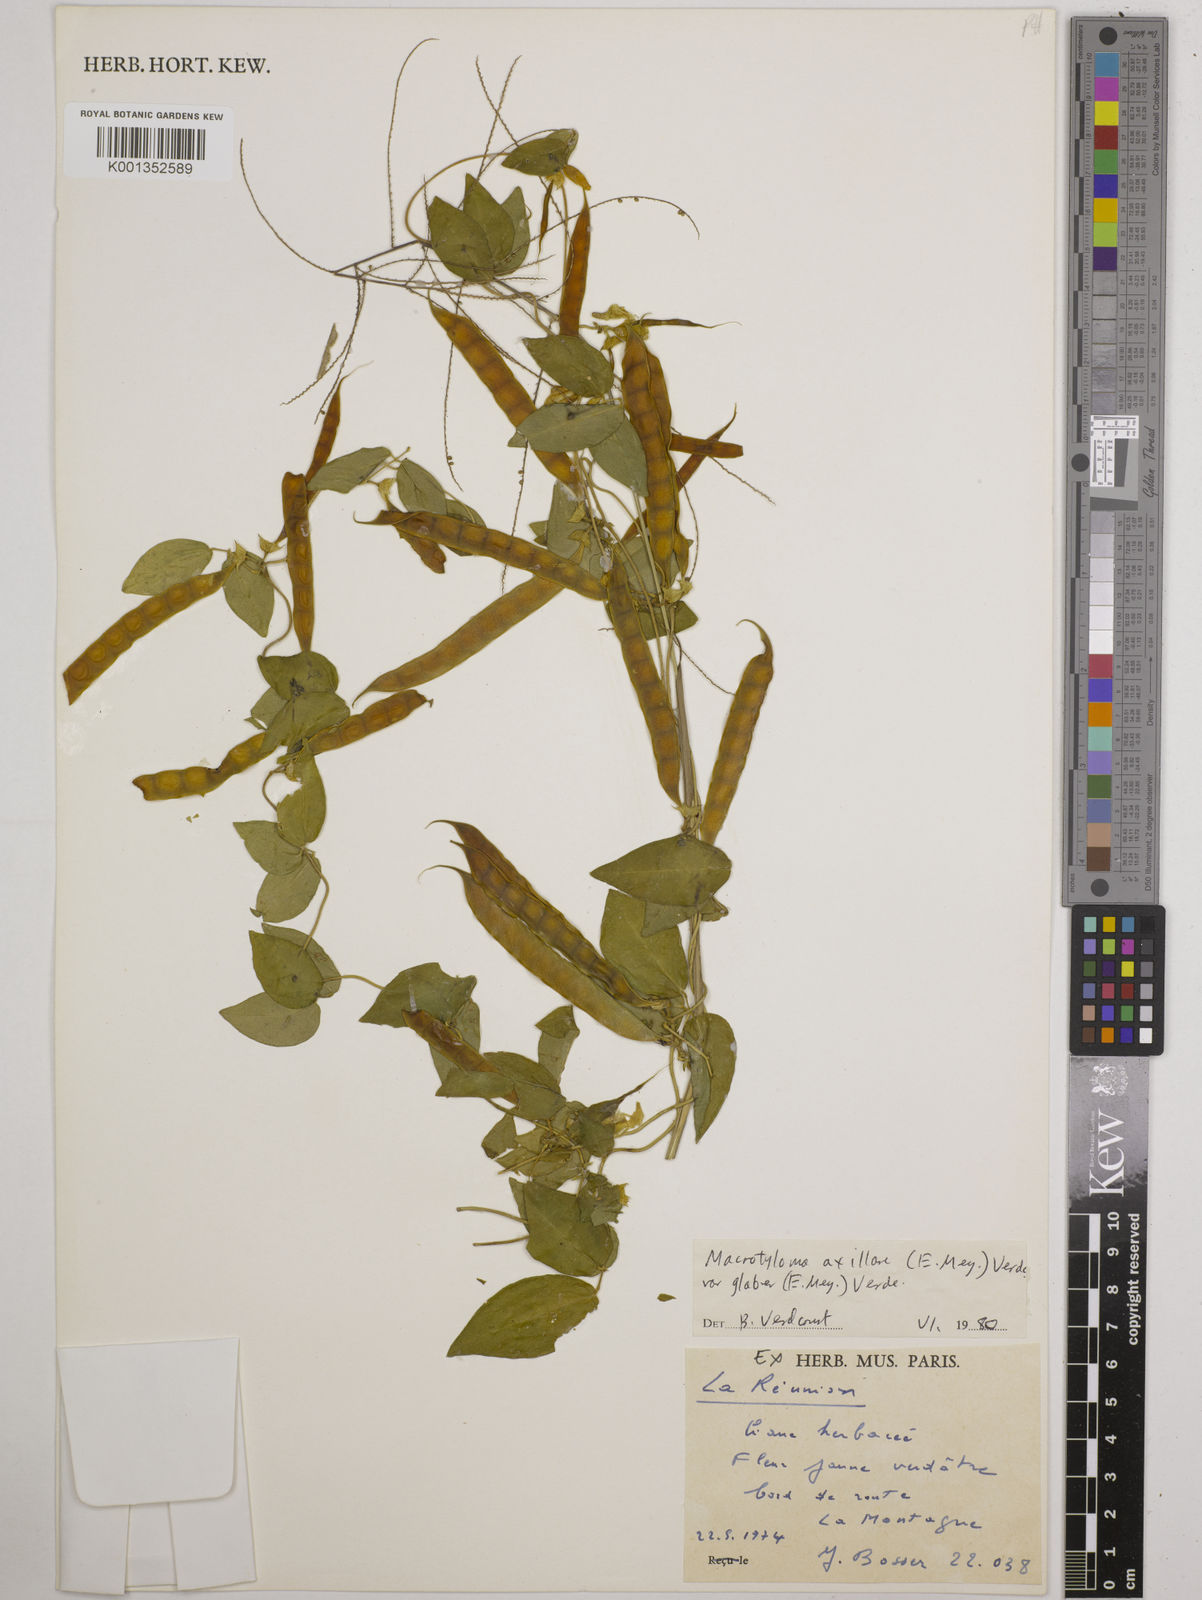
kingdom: Plantae
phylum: Tracheophyta
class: Magnoliopsida
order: Fabales
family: Fabaceae
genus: Macrotyloma
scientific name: Macrotyloma
